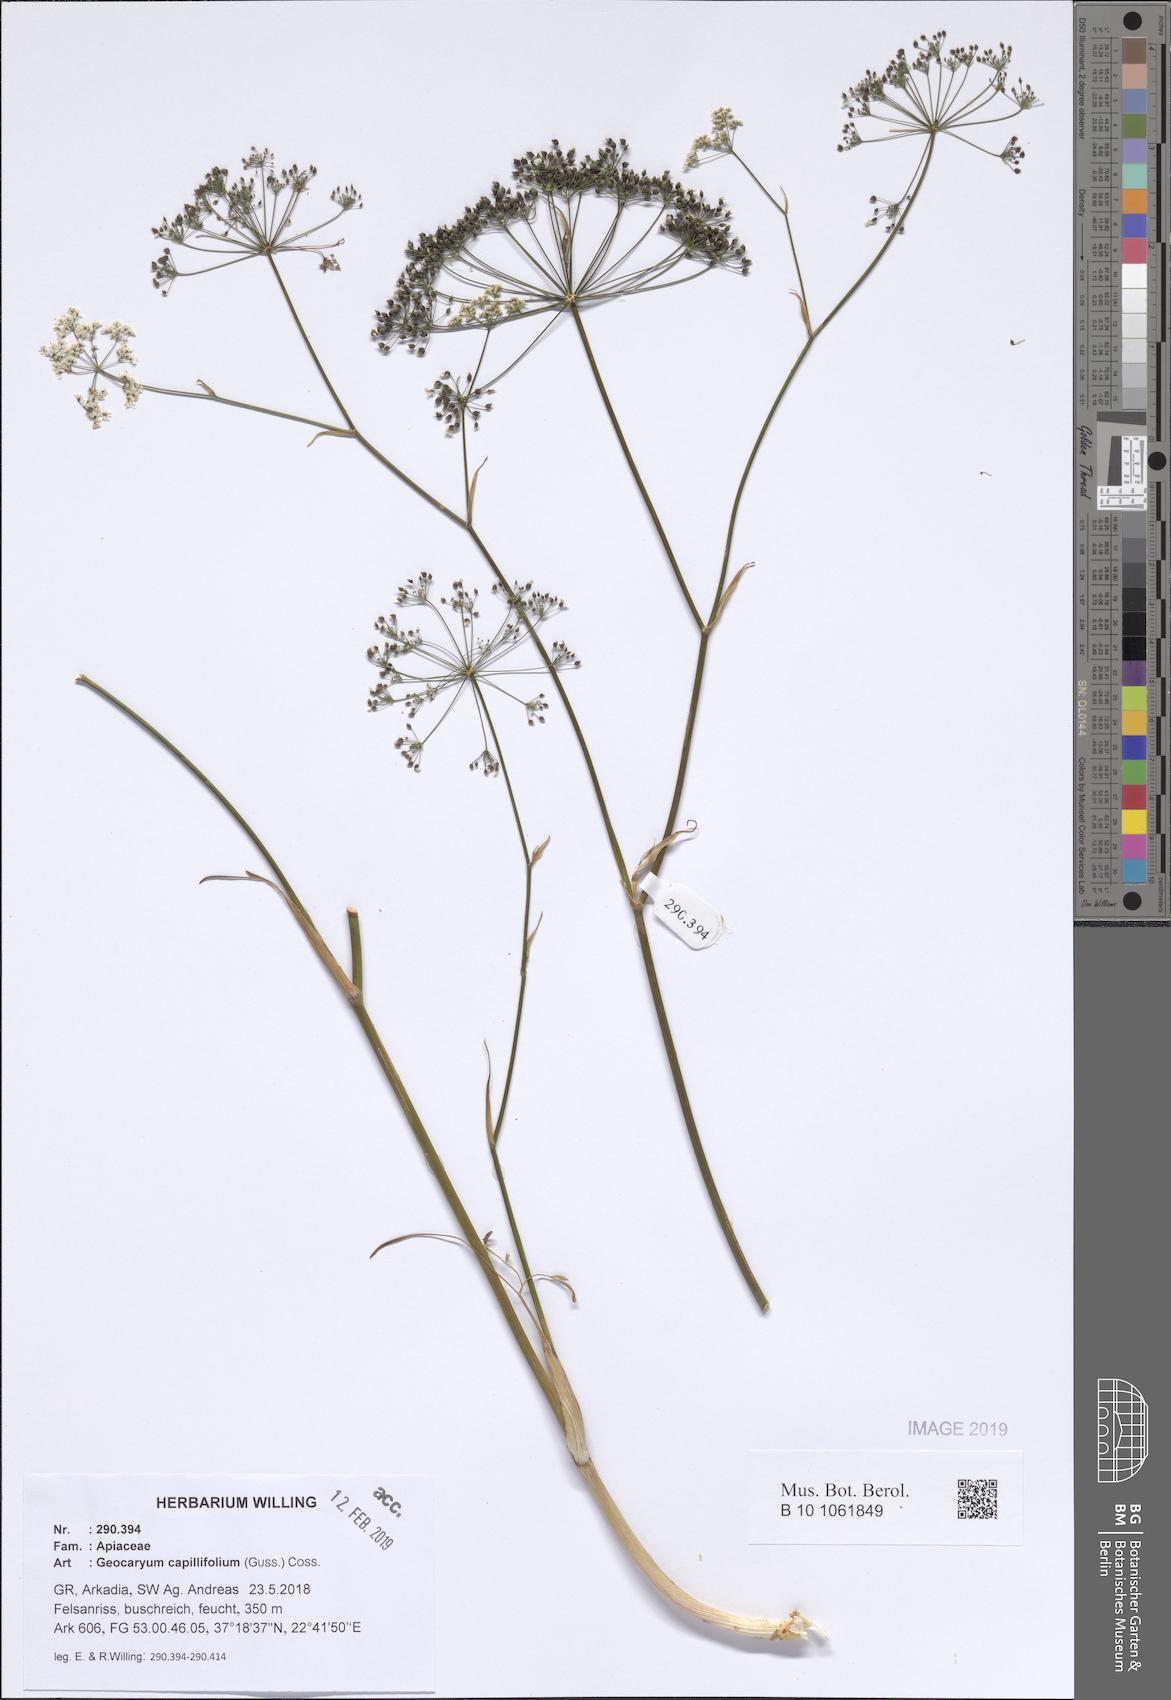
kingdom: Plantae
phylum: Tracheophyta
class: Magnoliopsida
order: Apiales
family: Apiaceae
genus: Geocaryum
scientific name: Geocaryum capillifolium
